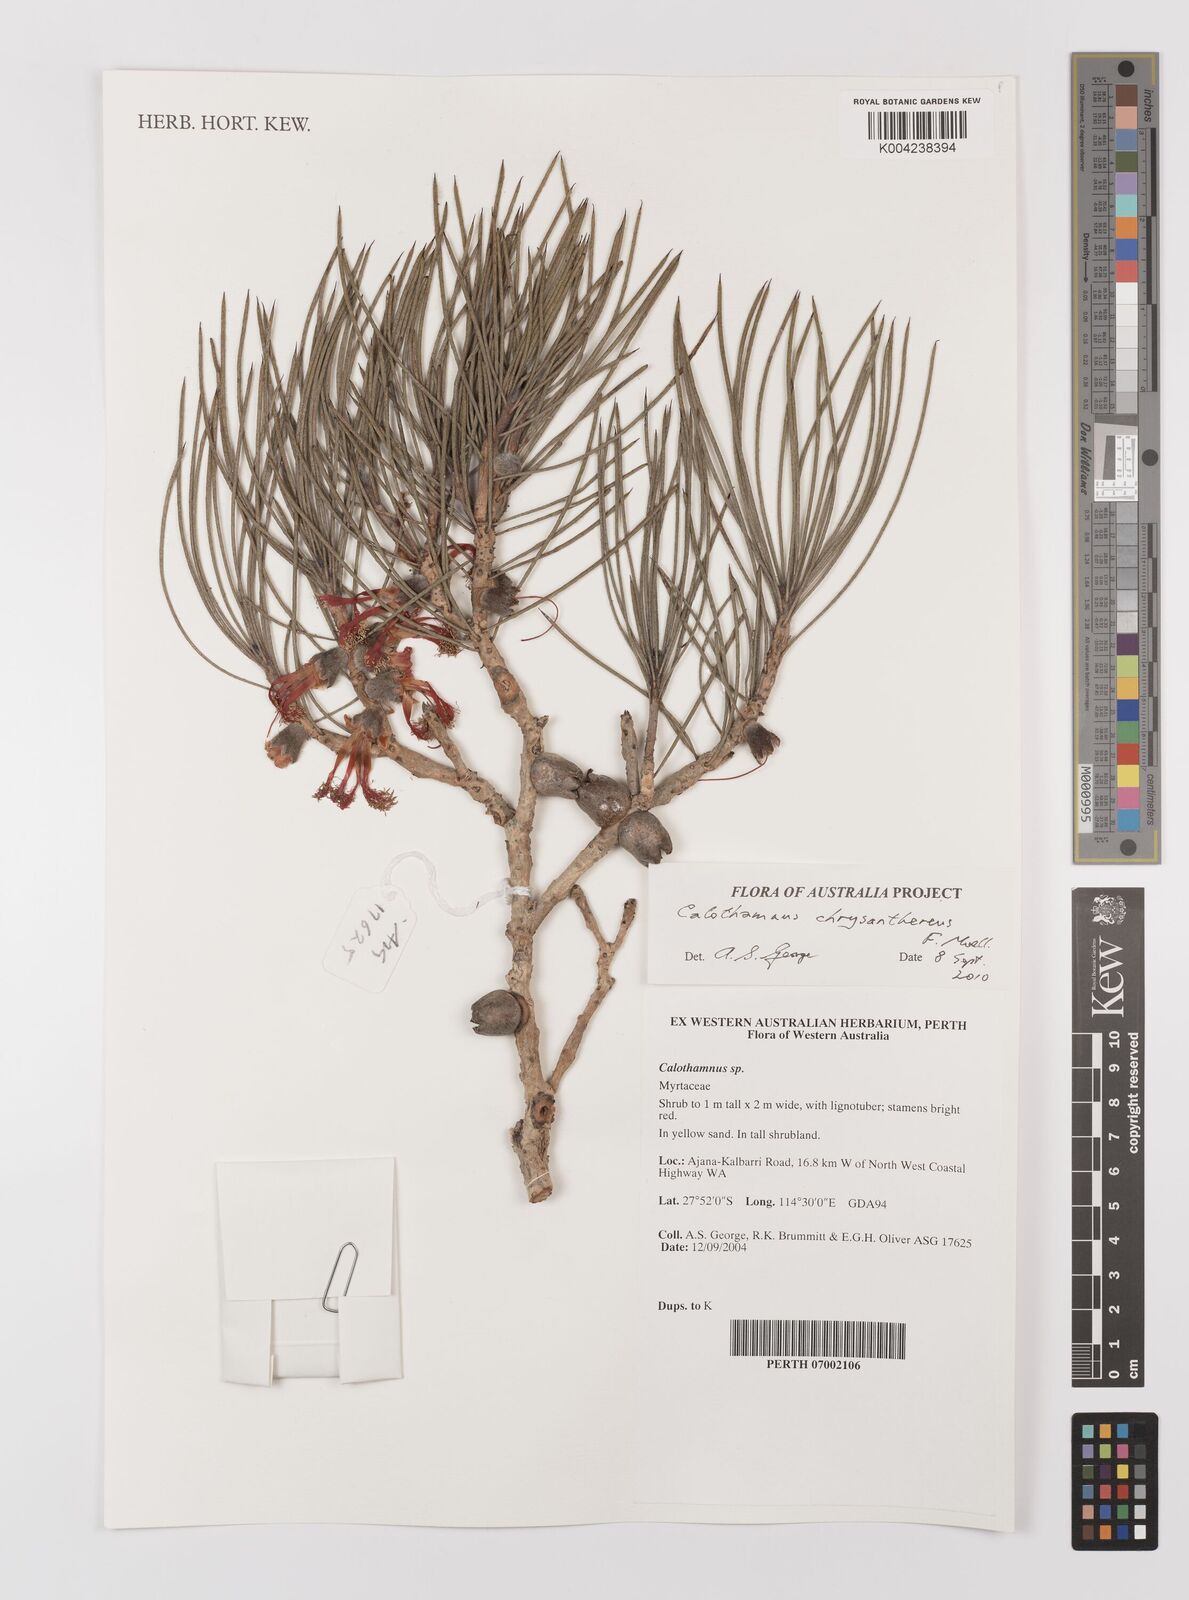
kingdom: Plantae
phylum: Tracheophyta
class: Magnoliopsida
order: Myrtales
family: Myrtaceae
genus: Melaleuca
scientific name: Melaleuca chrysantherea
